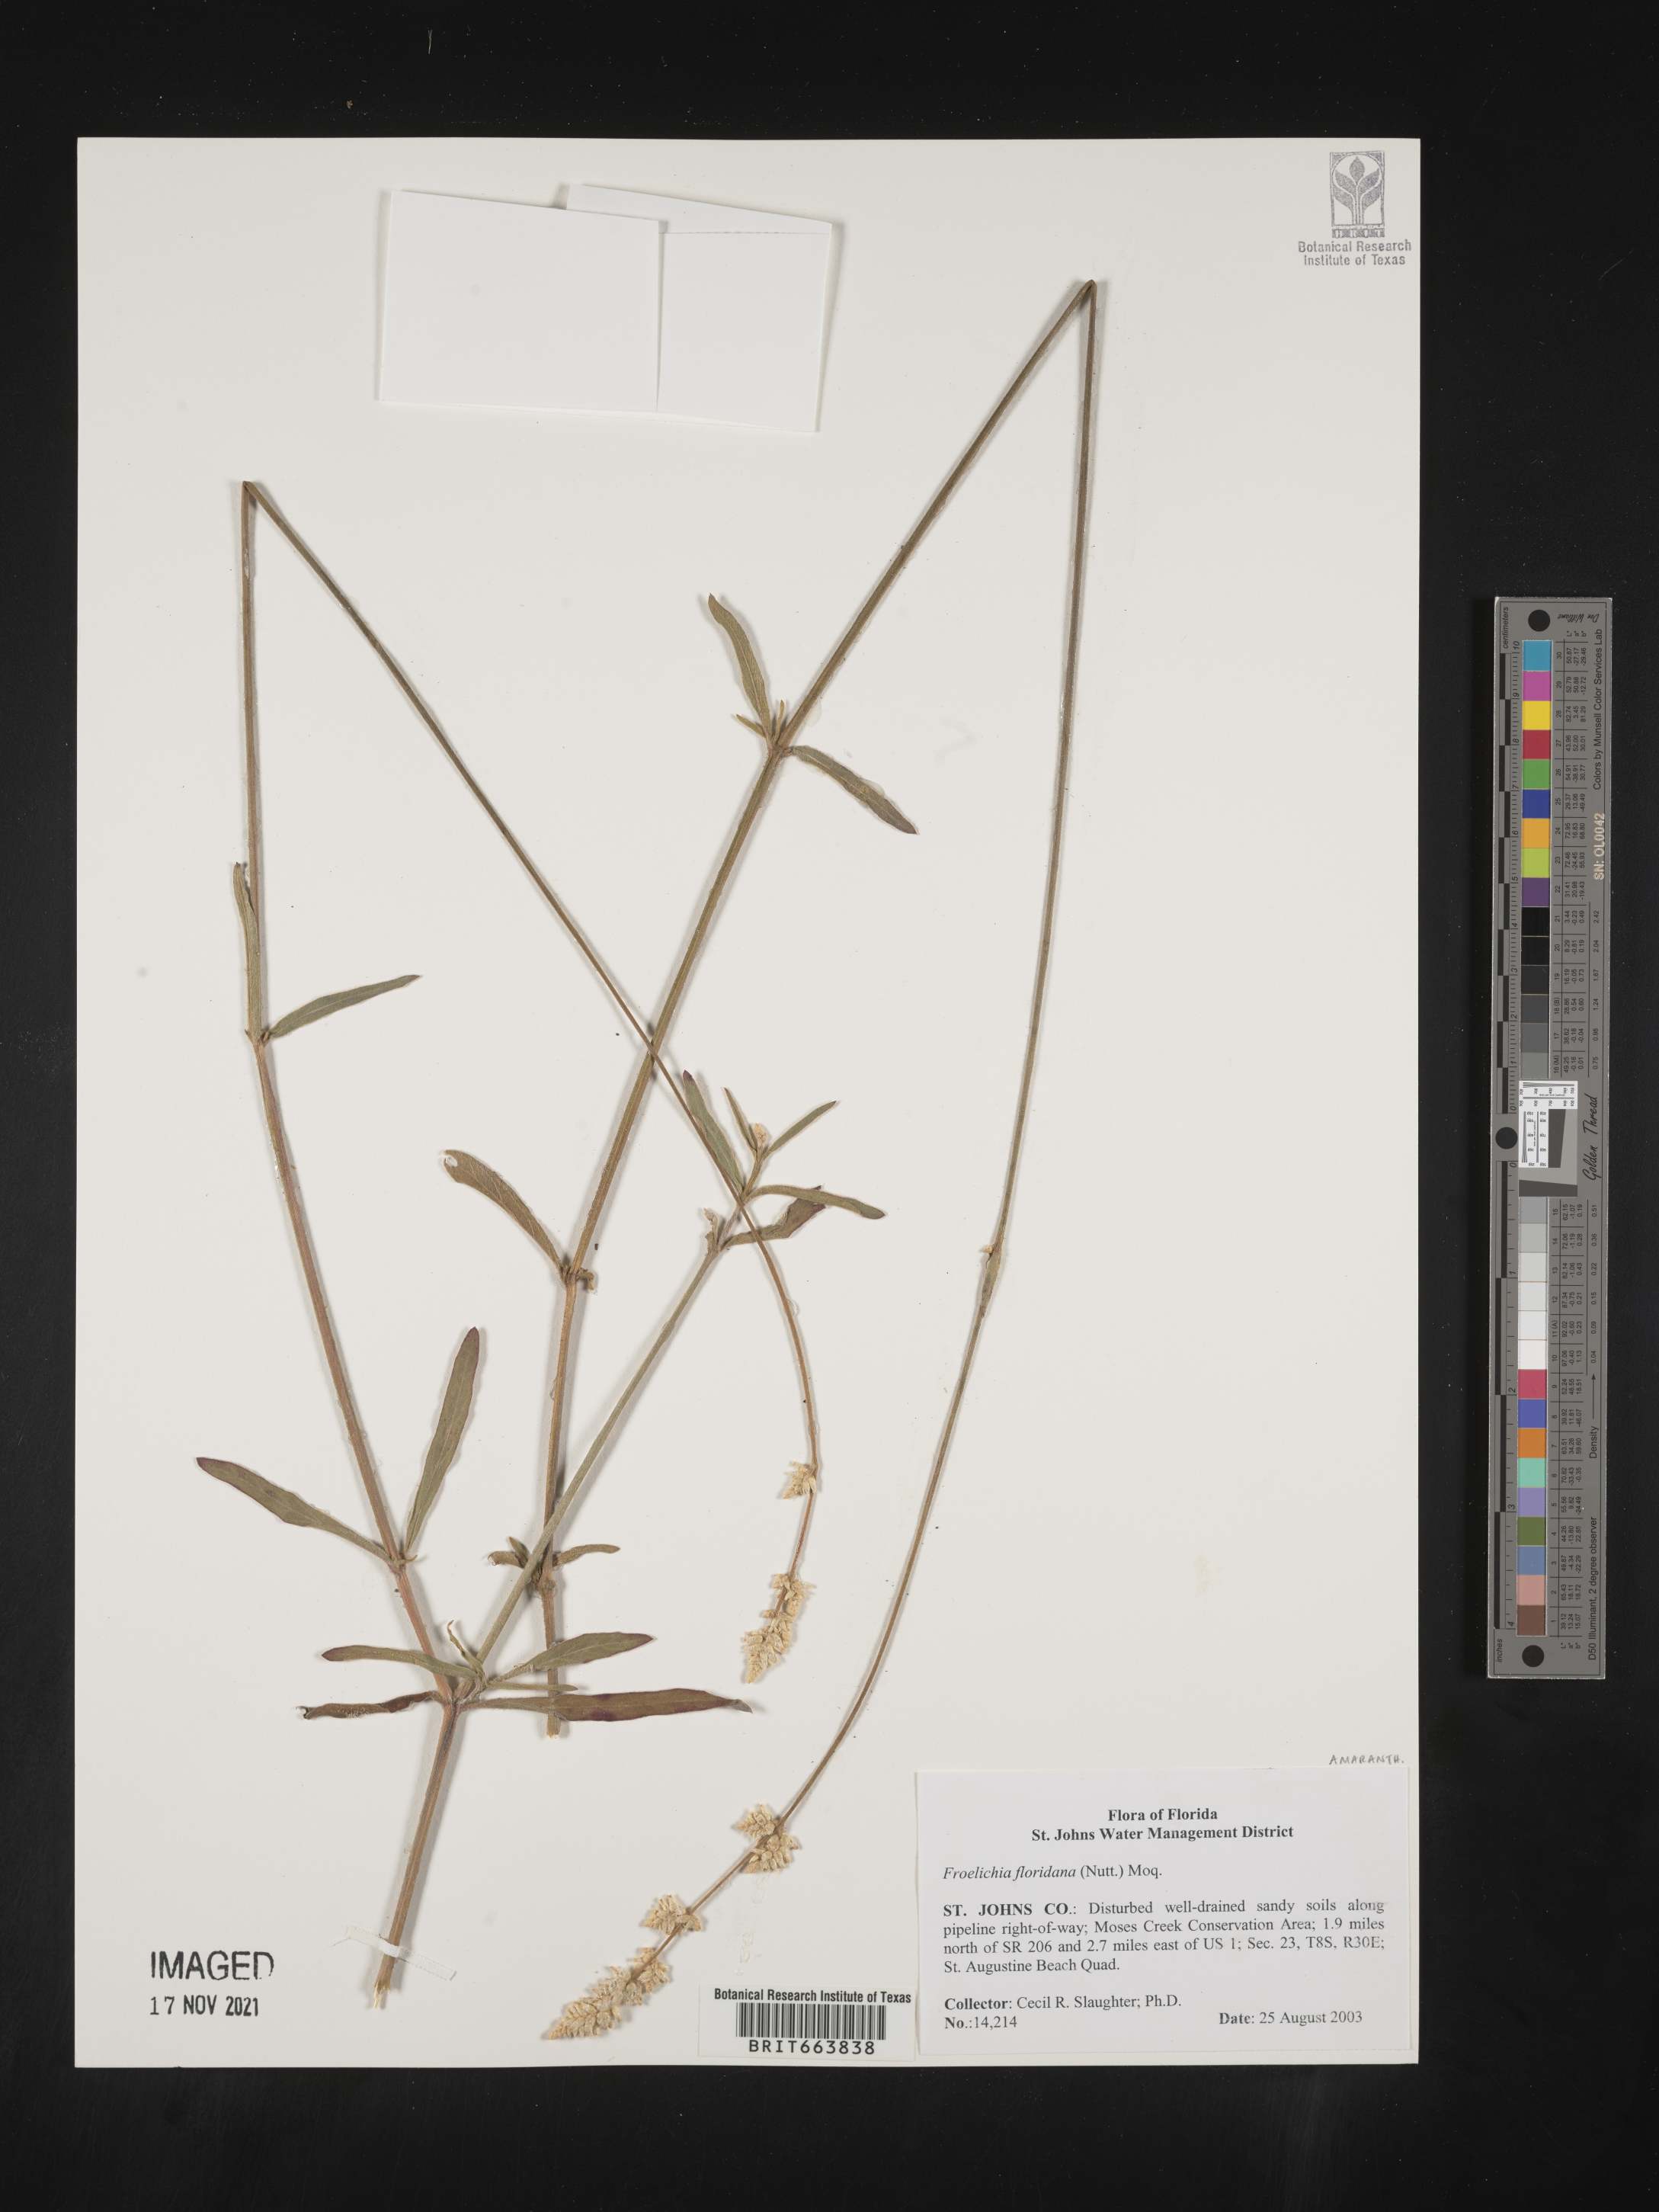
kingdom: Plantae
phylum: Tracheophyta
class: Magnoliopsida
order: Caryophyllales
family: Amaranthaceae
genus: Froelichia
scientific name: Froelichia floridana
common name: Florida snake-cotton
